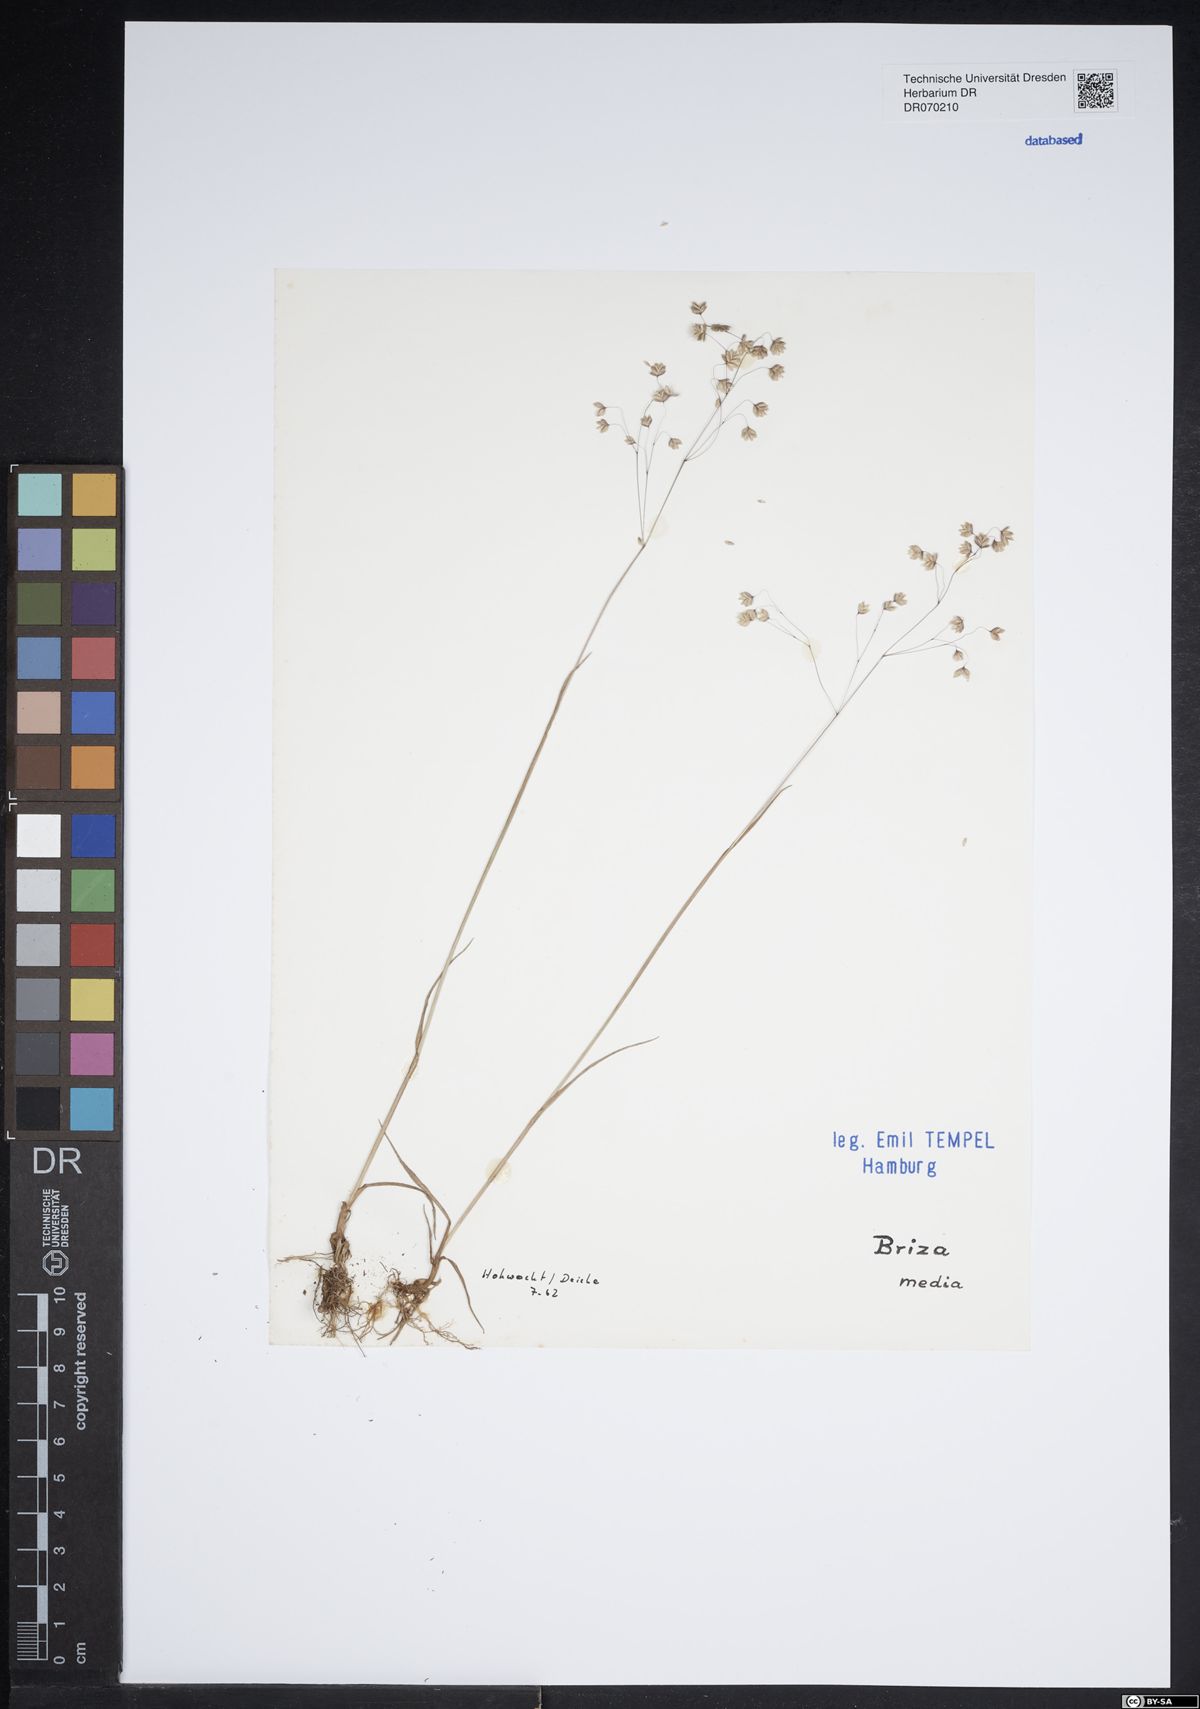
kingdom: Plantae
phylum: Tracheophyta
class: Liliopsida
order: Poales
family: Poaceae
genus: Briza
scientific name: Briza media
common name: Quaking grass
